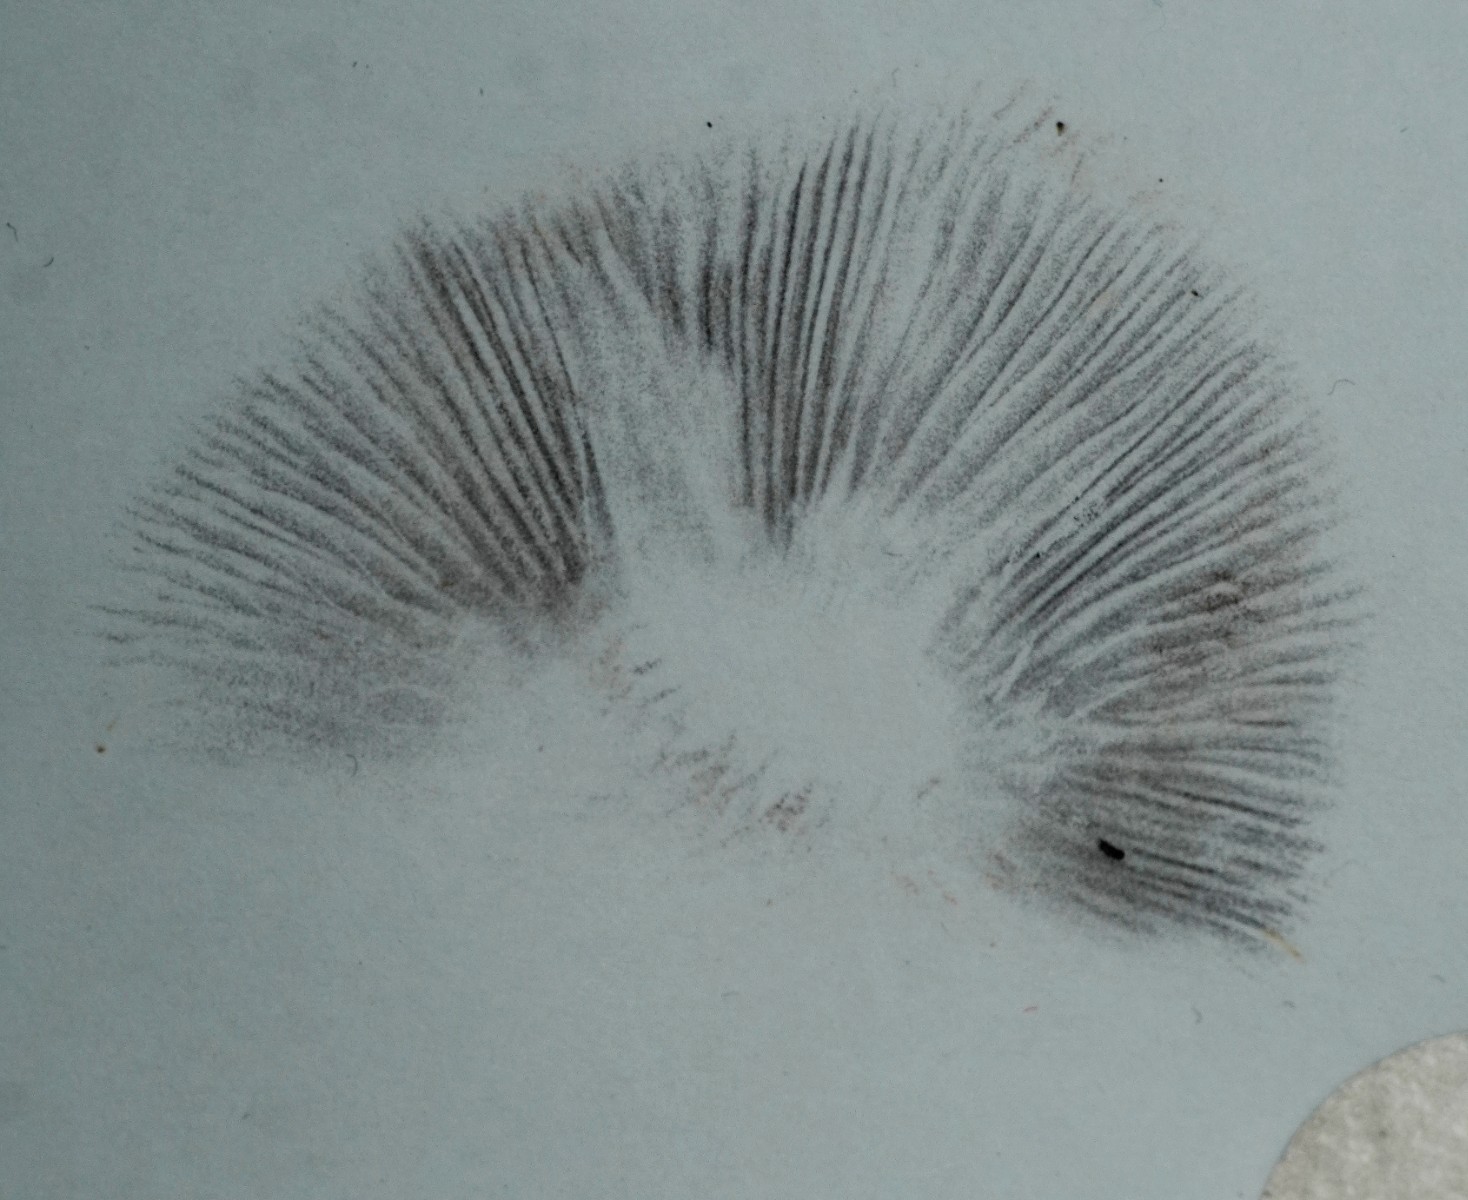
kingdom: Fungi
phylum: Basidiomycota
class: Agaricomycetes
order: Agaricales
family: Psathyrellaceae
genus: Parasola
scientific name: Parasola conopilea
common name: kegle-hjulhat
